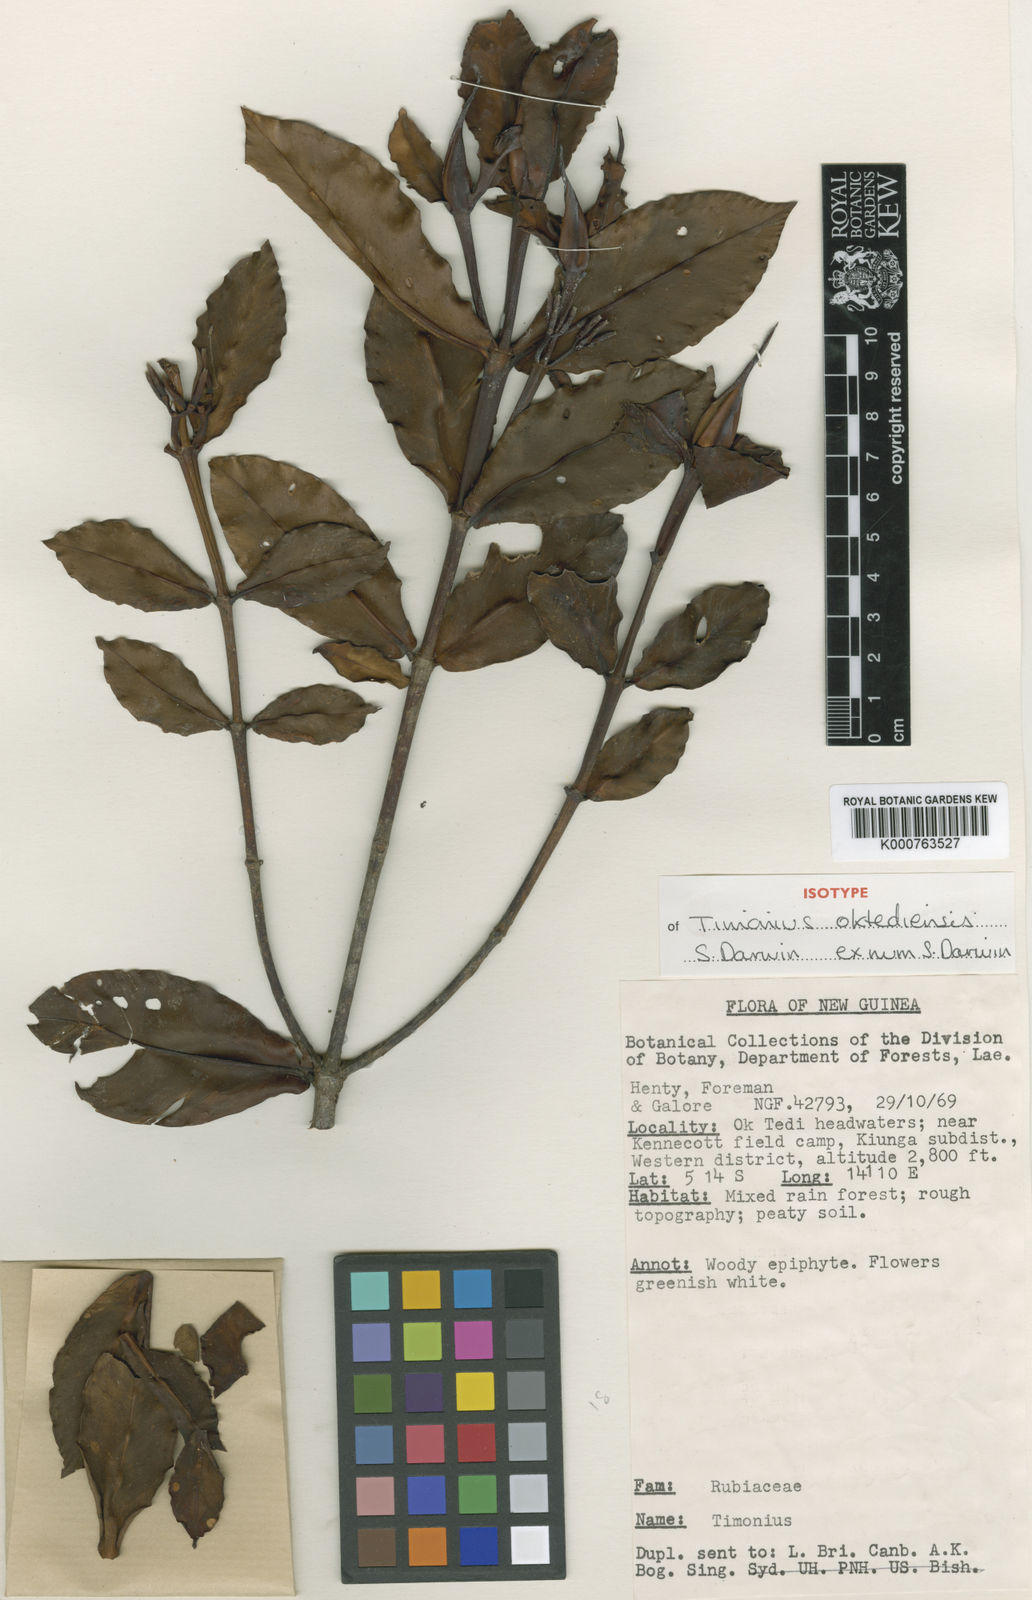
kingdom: Plantae
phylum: Tracheophyta
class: Magnoliopsida
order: Gentianales
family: Rubiaceae
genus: Timonius
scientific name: Timonius oktediensis
